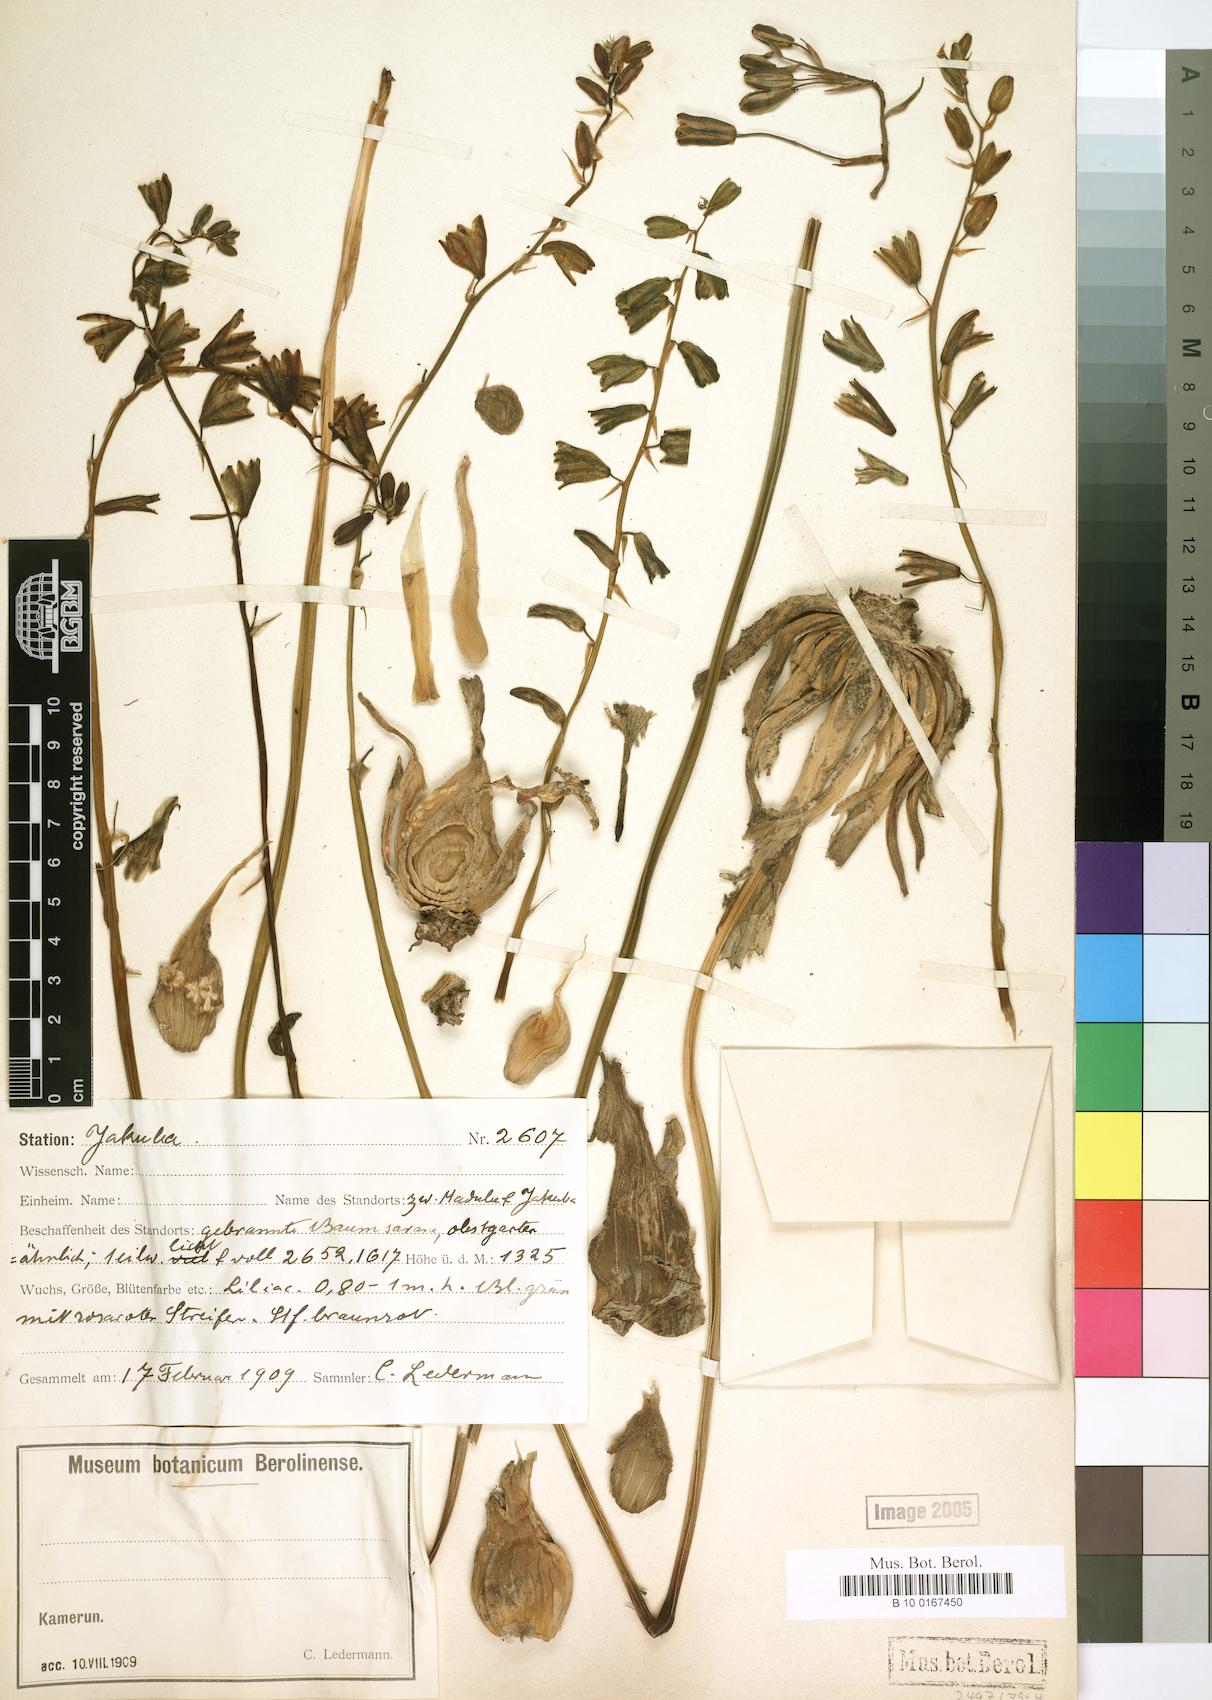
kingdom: Plantae
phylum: Tracheophyta
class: Liliopsida
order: Liliales
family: Liliaceae
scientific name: Liliaceae
